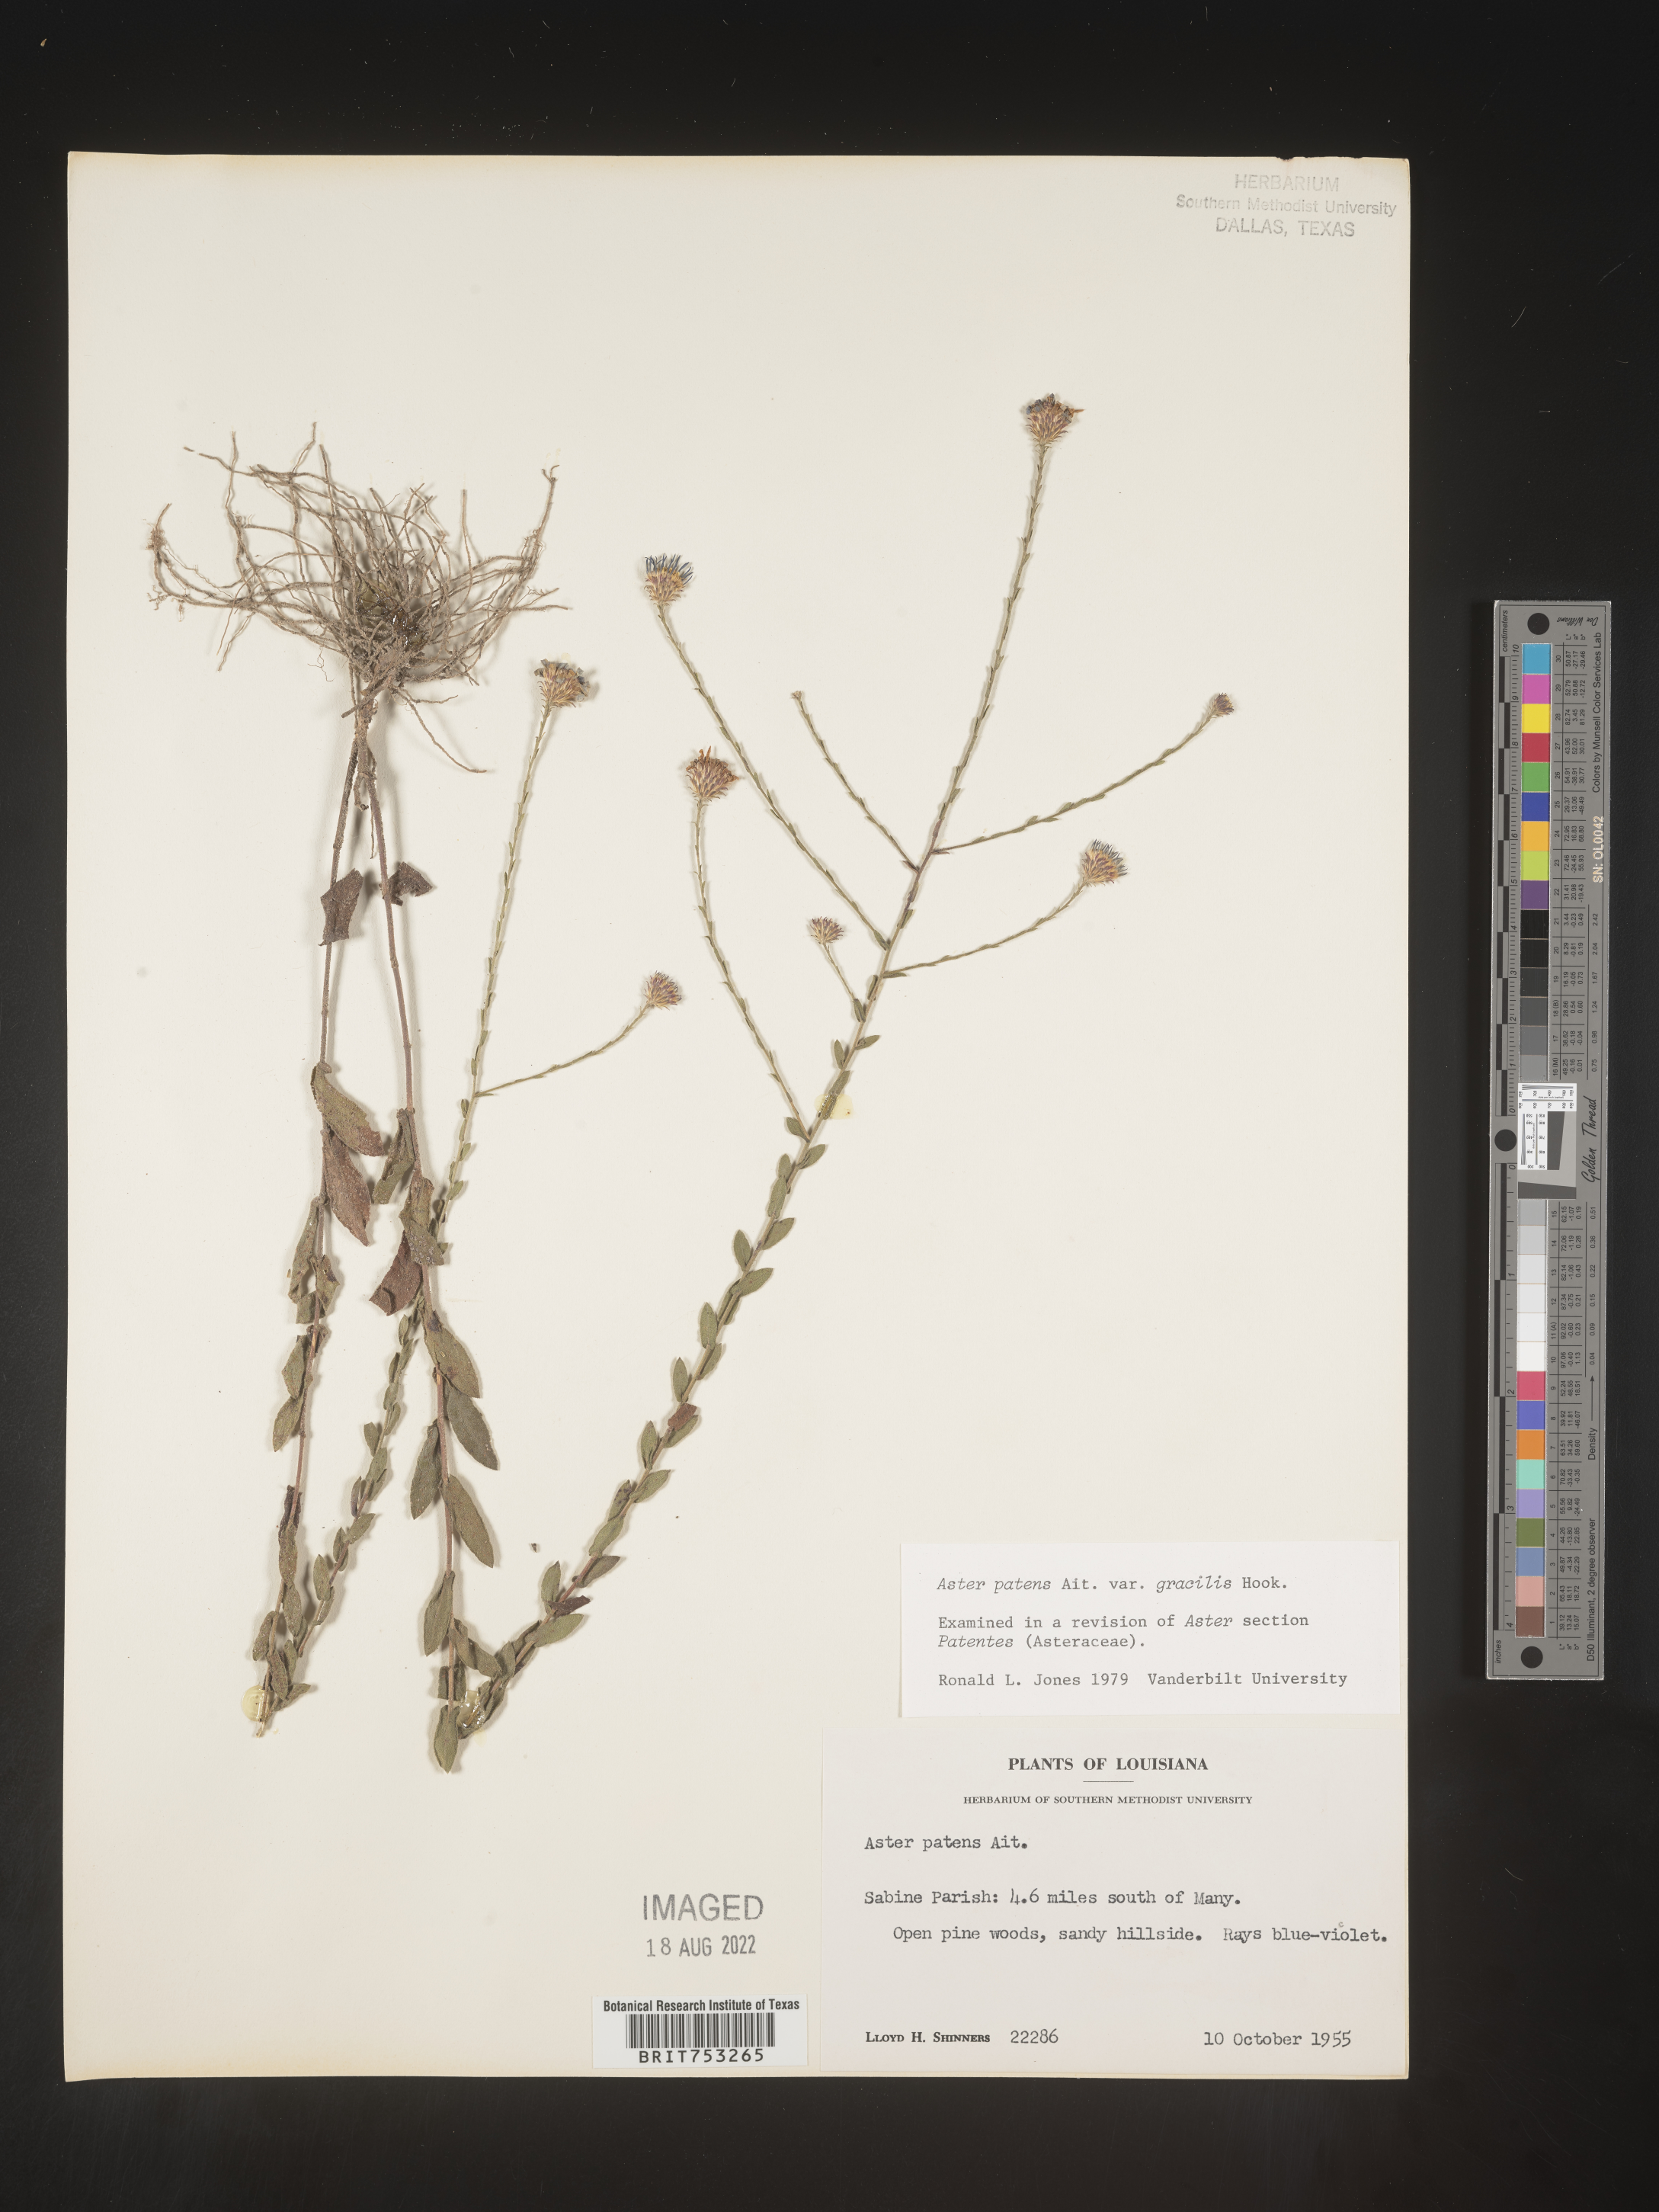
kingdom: Plantae
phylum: Tracheophyta
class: Magnoliopsida
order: Asterales
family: Asteraceae
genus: Symphyotrichum
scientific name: Symphyotrichum patens
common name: Late purple aster
